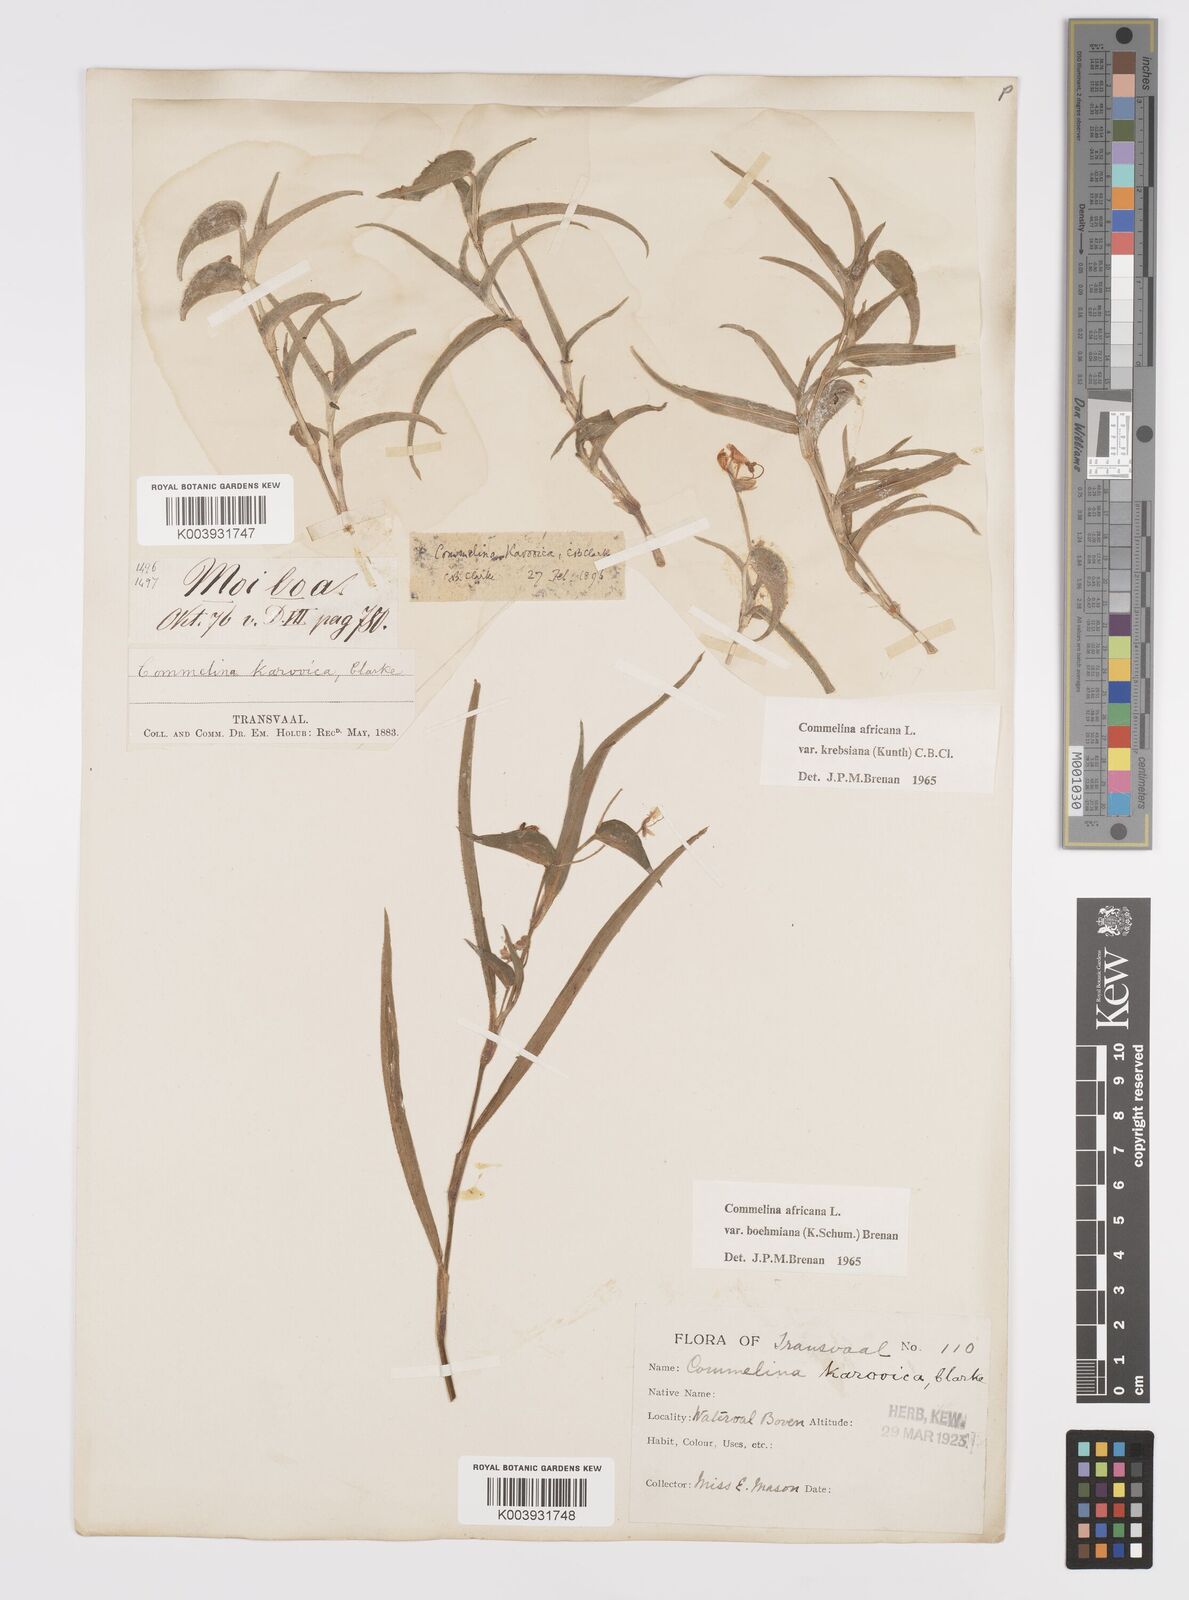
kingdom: Plantae
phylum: Tracheophyta
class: Liliopsida
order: Commelinales
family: Commelinaceae
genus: Commelina
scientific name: Commelina africana
